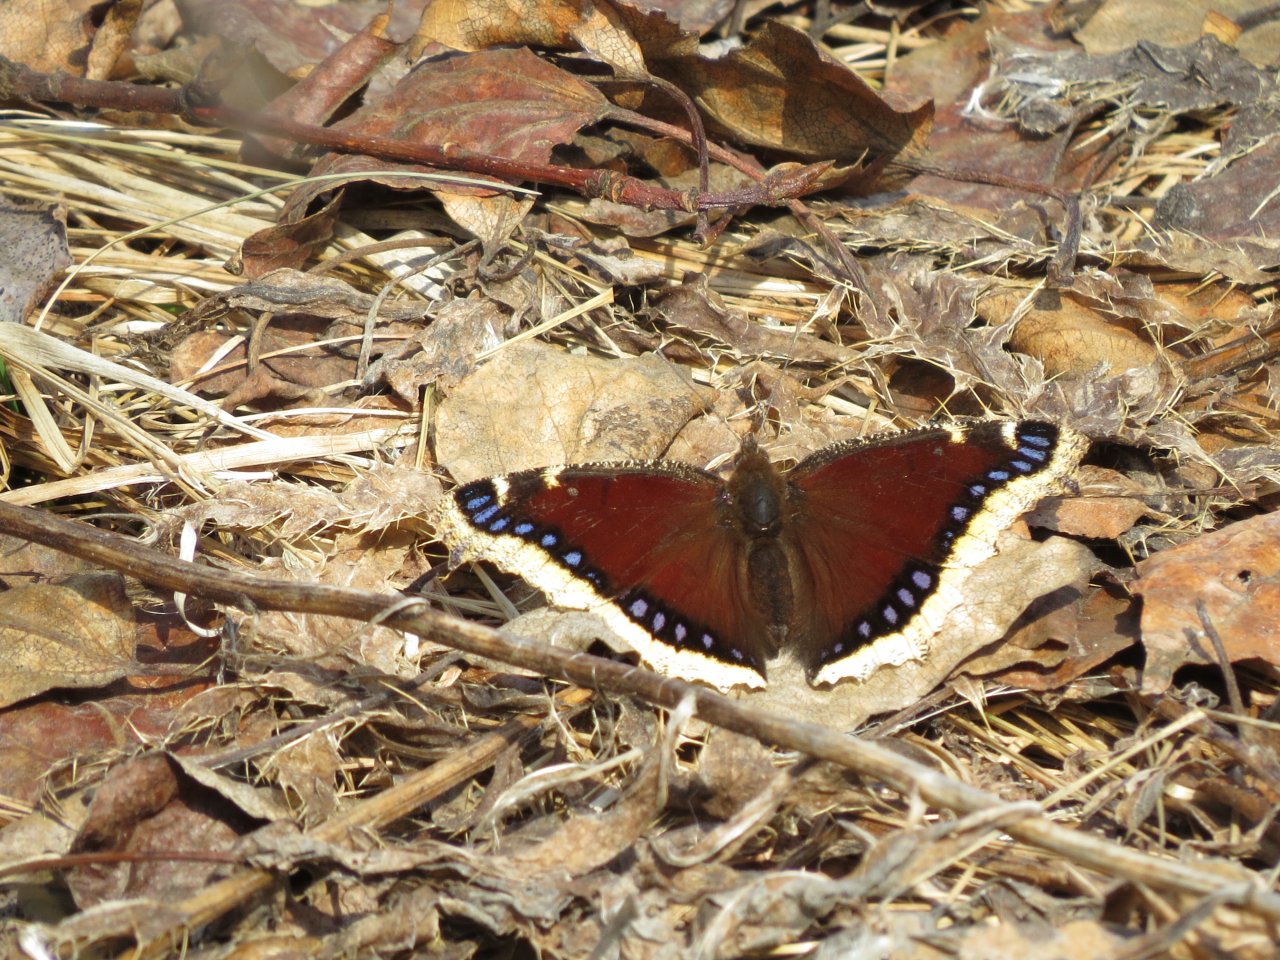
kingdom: Animalia
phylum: Arthropoda
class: Insecta
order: Lepidoptera
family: Nymphalidae
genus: Nymphalis
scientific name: Nymphalis antiopa
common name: Mourning Cloak
